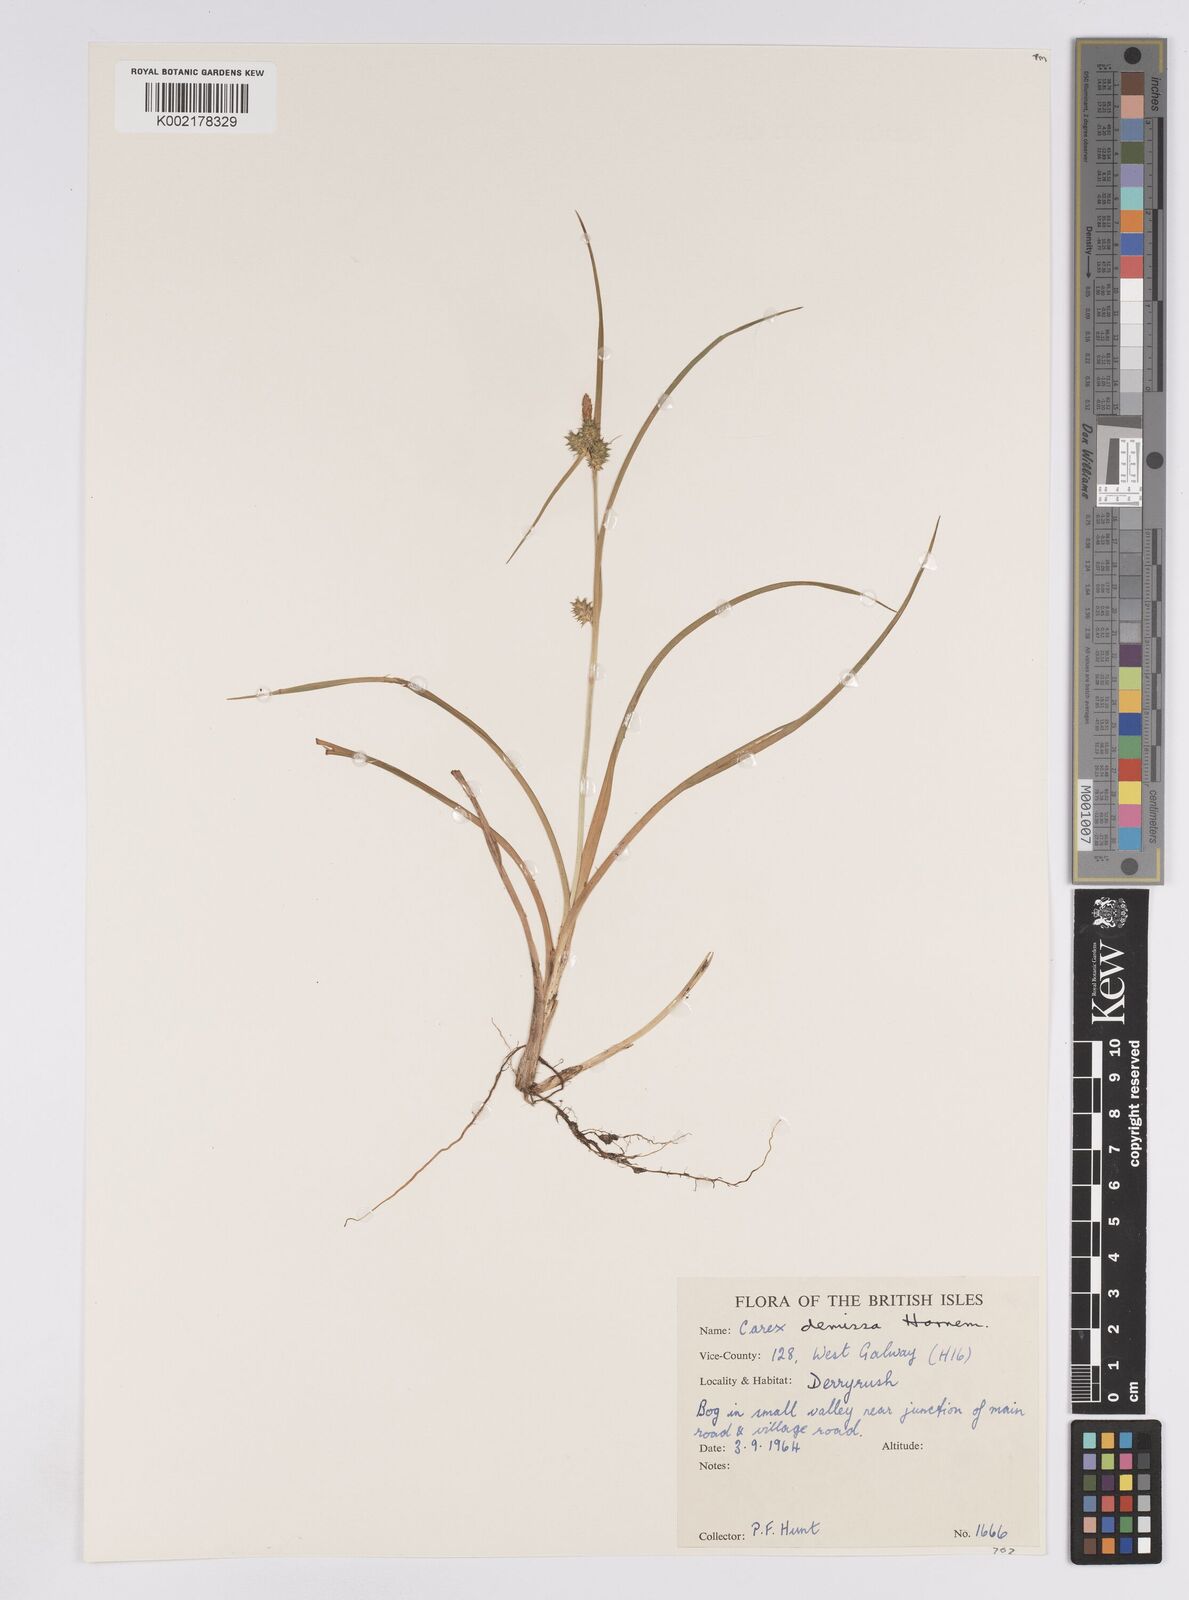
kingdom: Plantae
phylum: Tracheophyta
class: Liliopsida
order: Poales
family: Cyperaceae
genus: Carex
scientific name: Carex demissa
